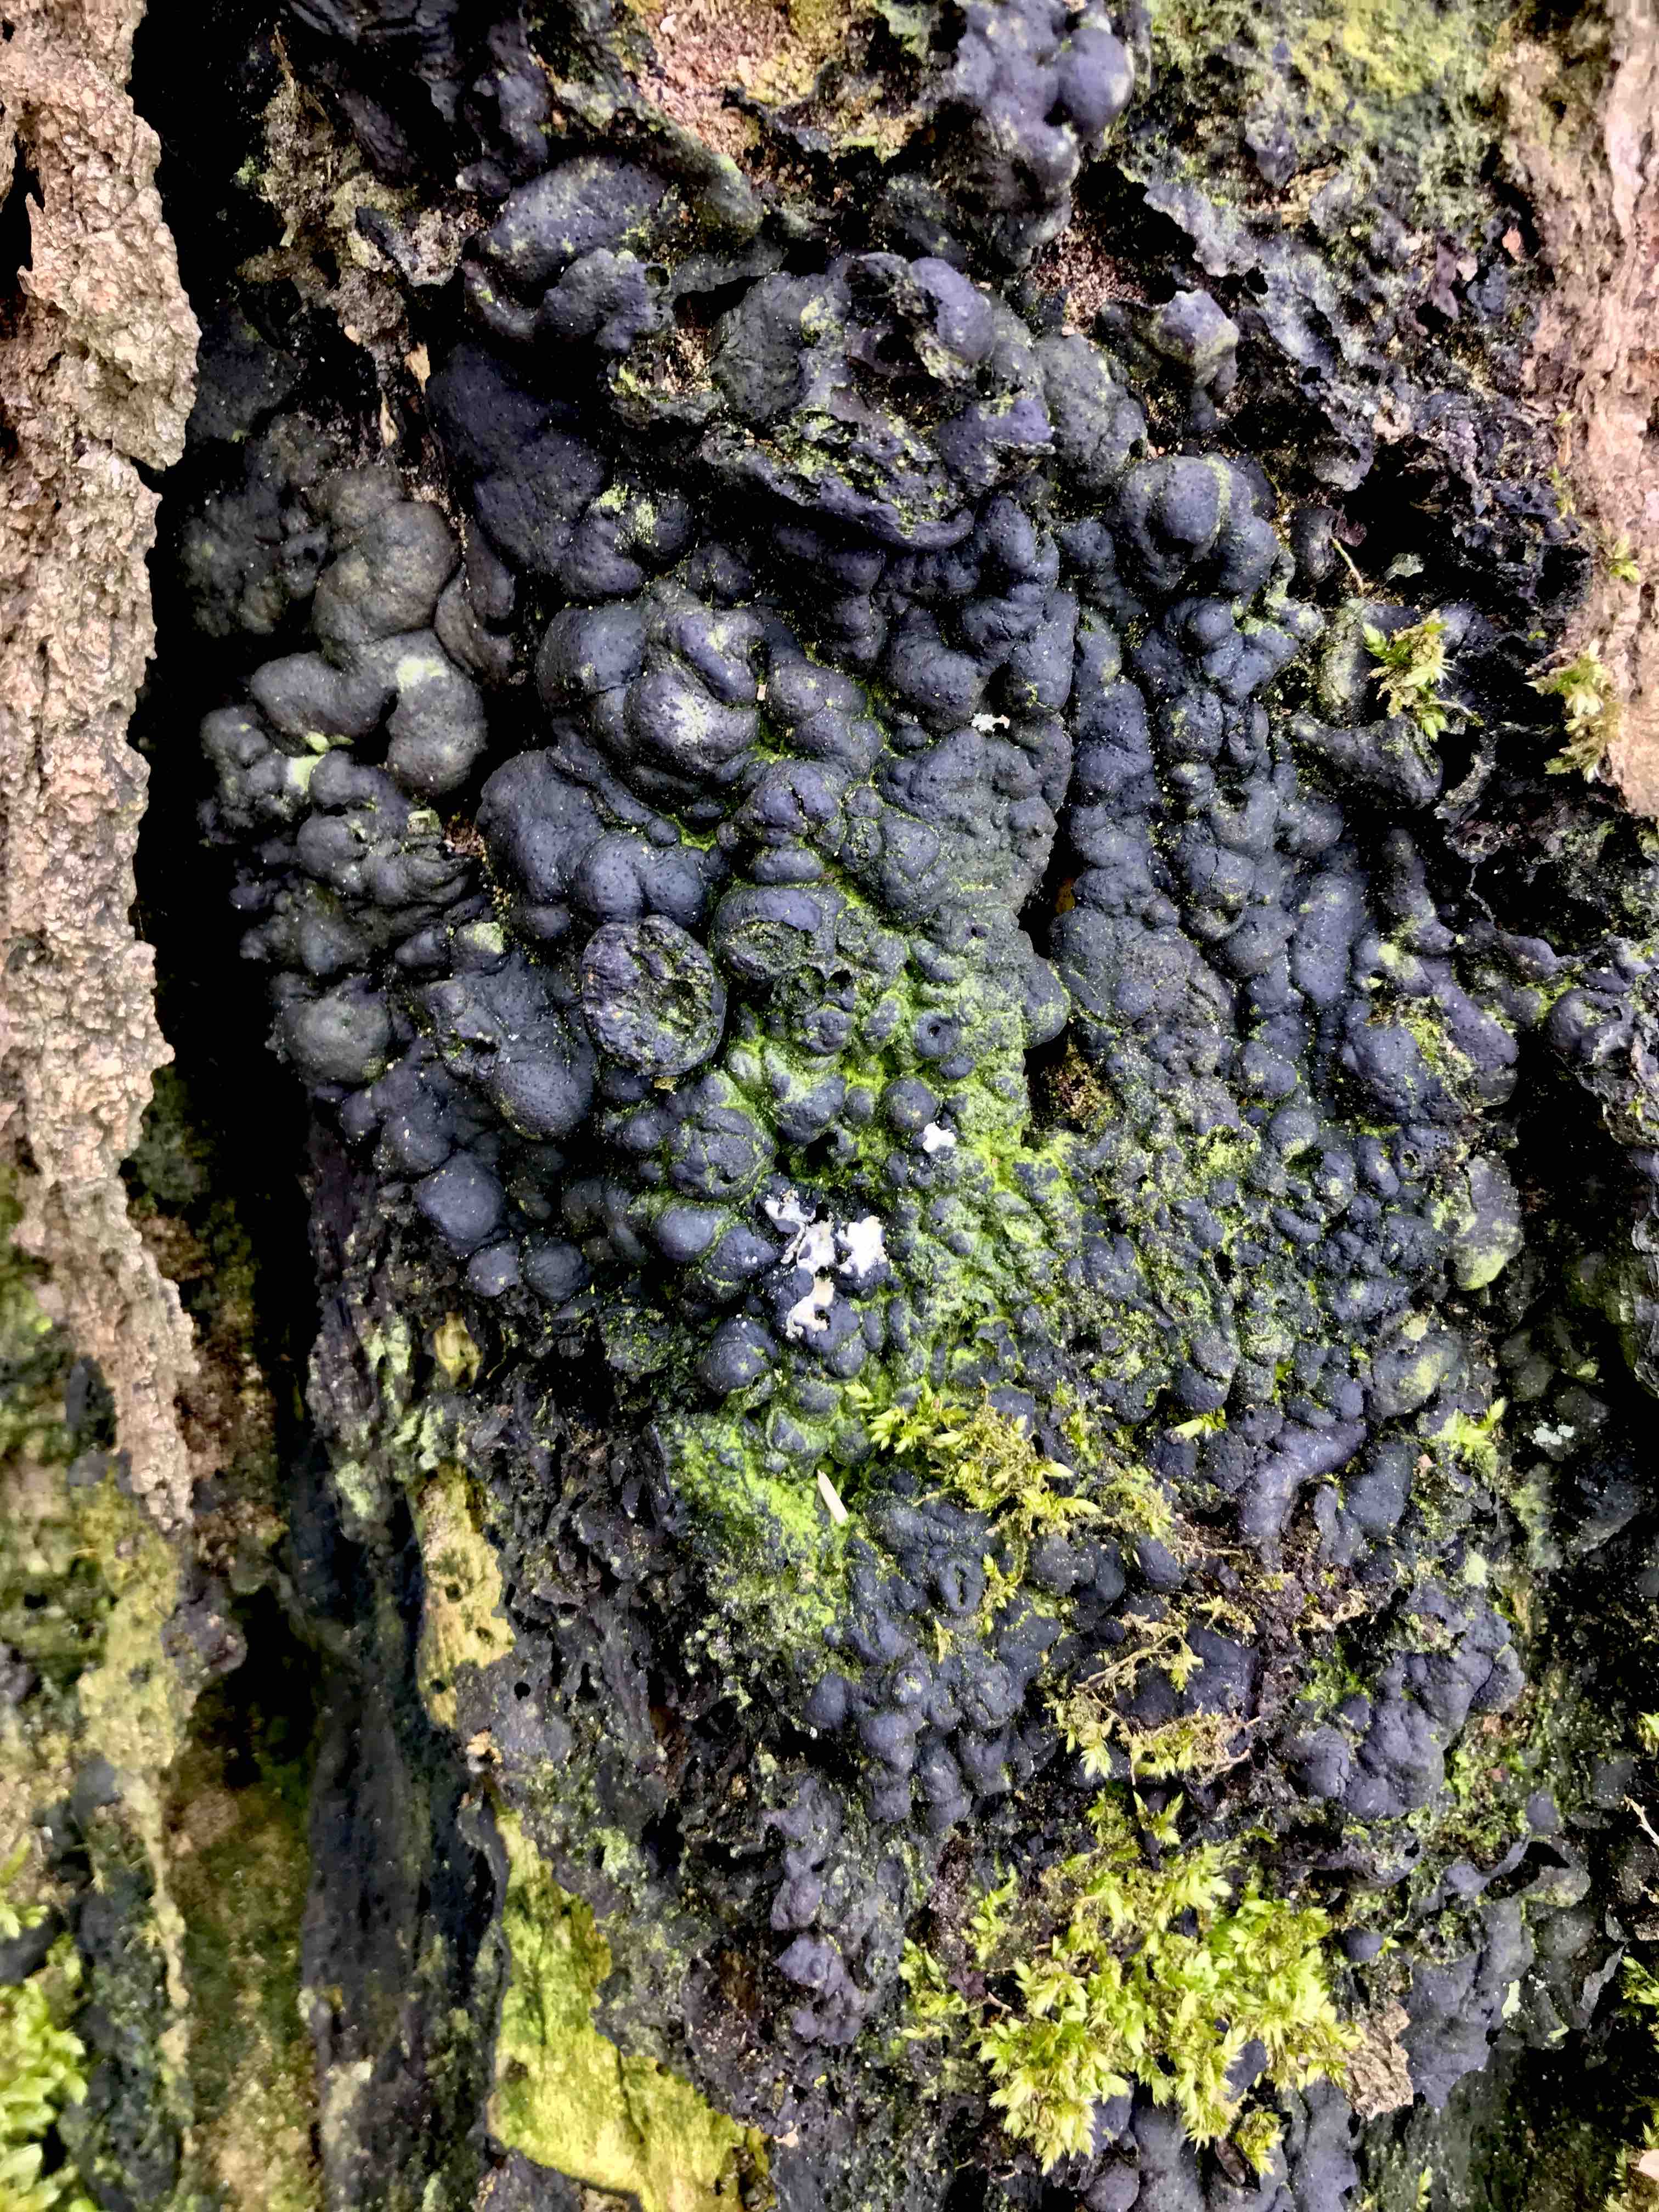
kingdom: Fungi
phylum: Ascomycota
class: Sordariomycetes
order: Xylariales
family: Xylariaceae
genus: Kretzschmaria
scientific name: Kretzschmaria deusta
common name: stor kulsvamp
